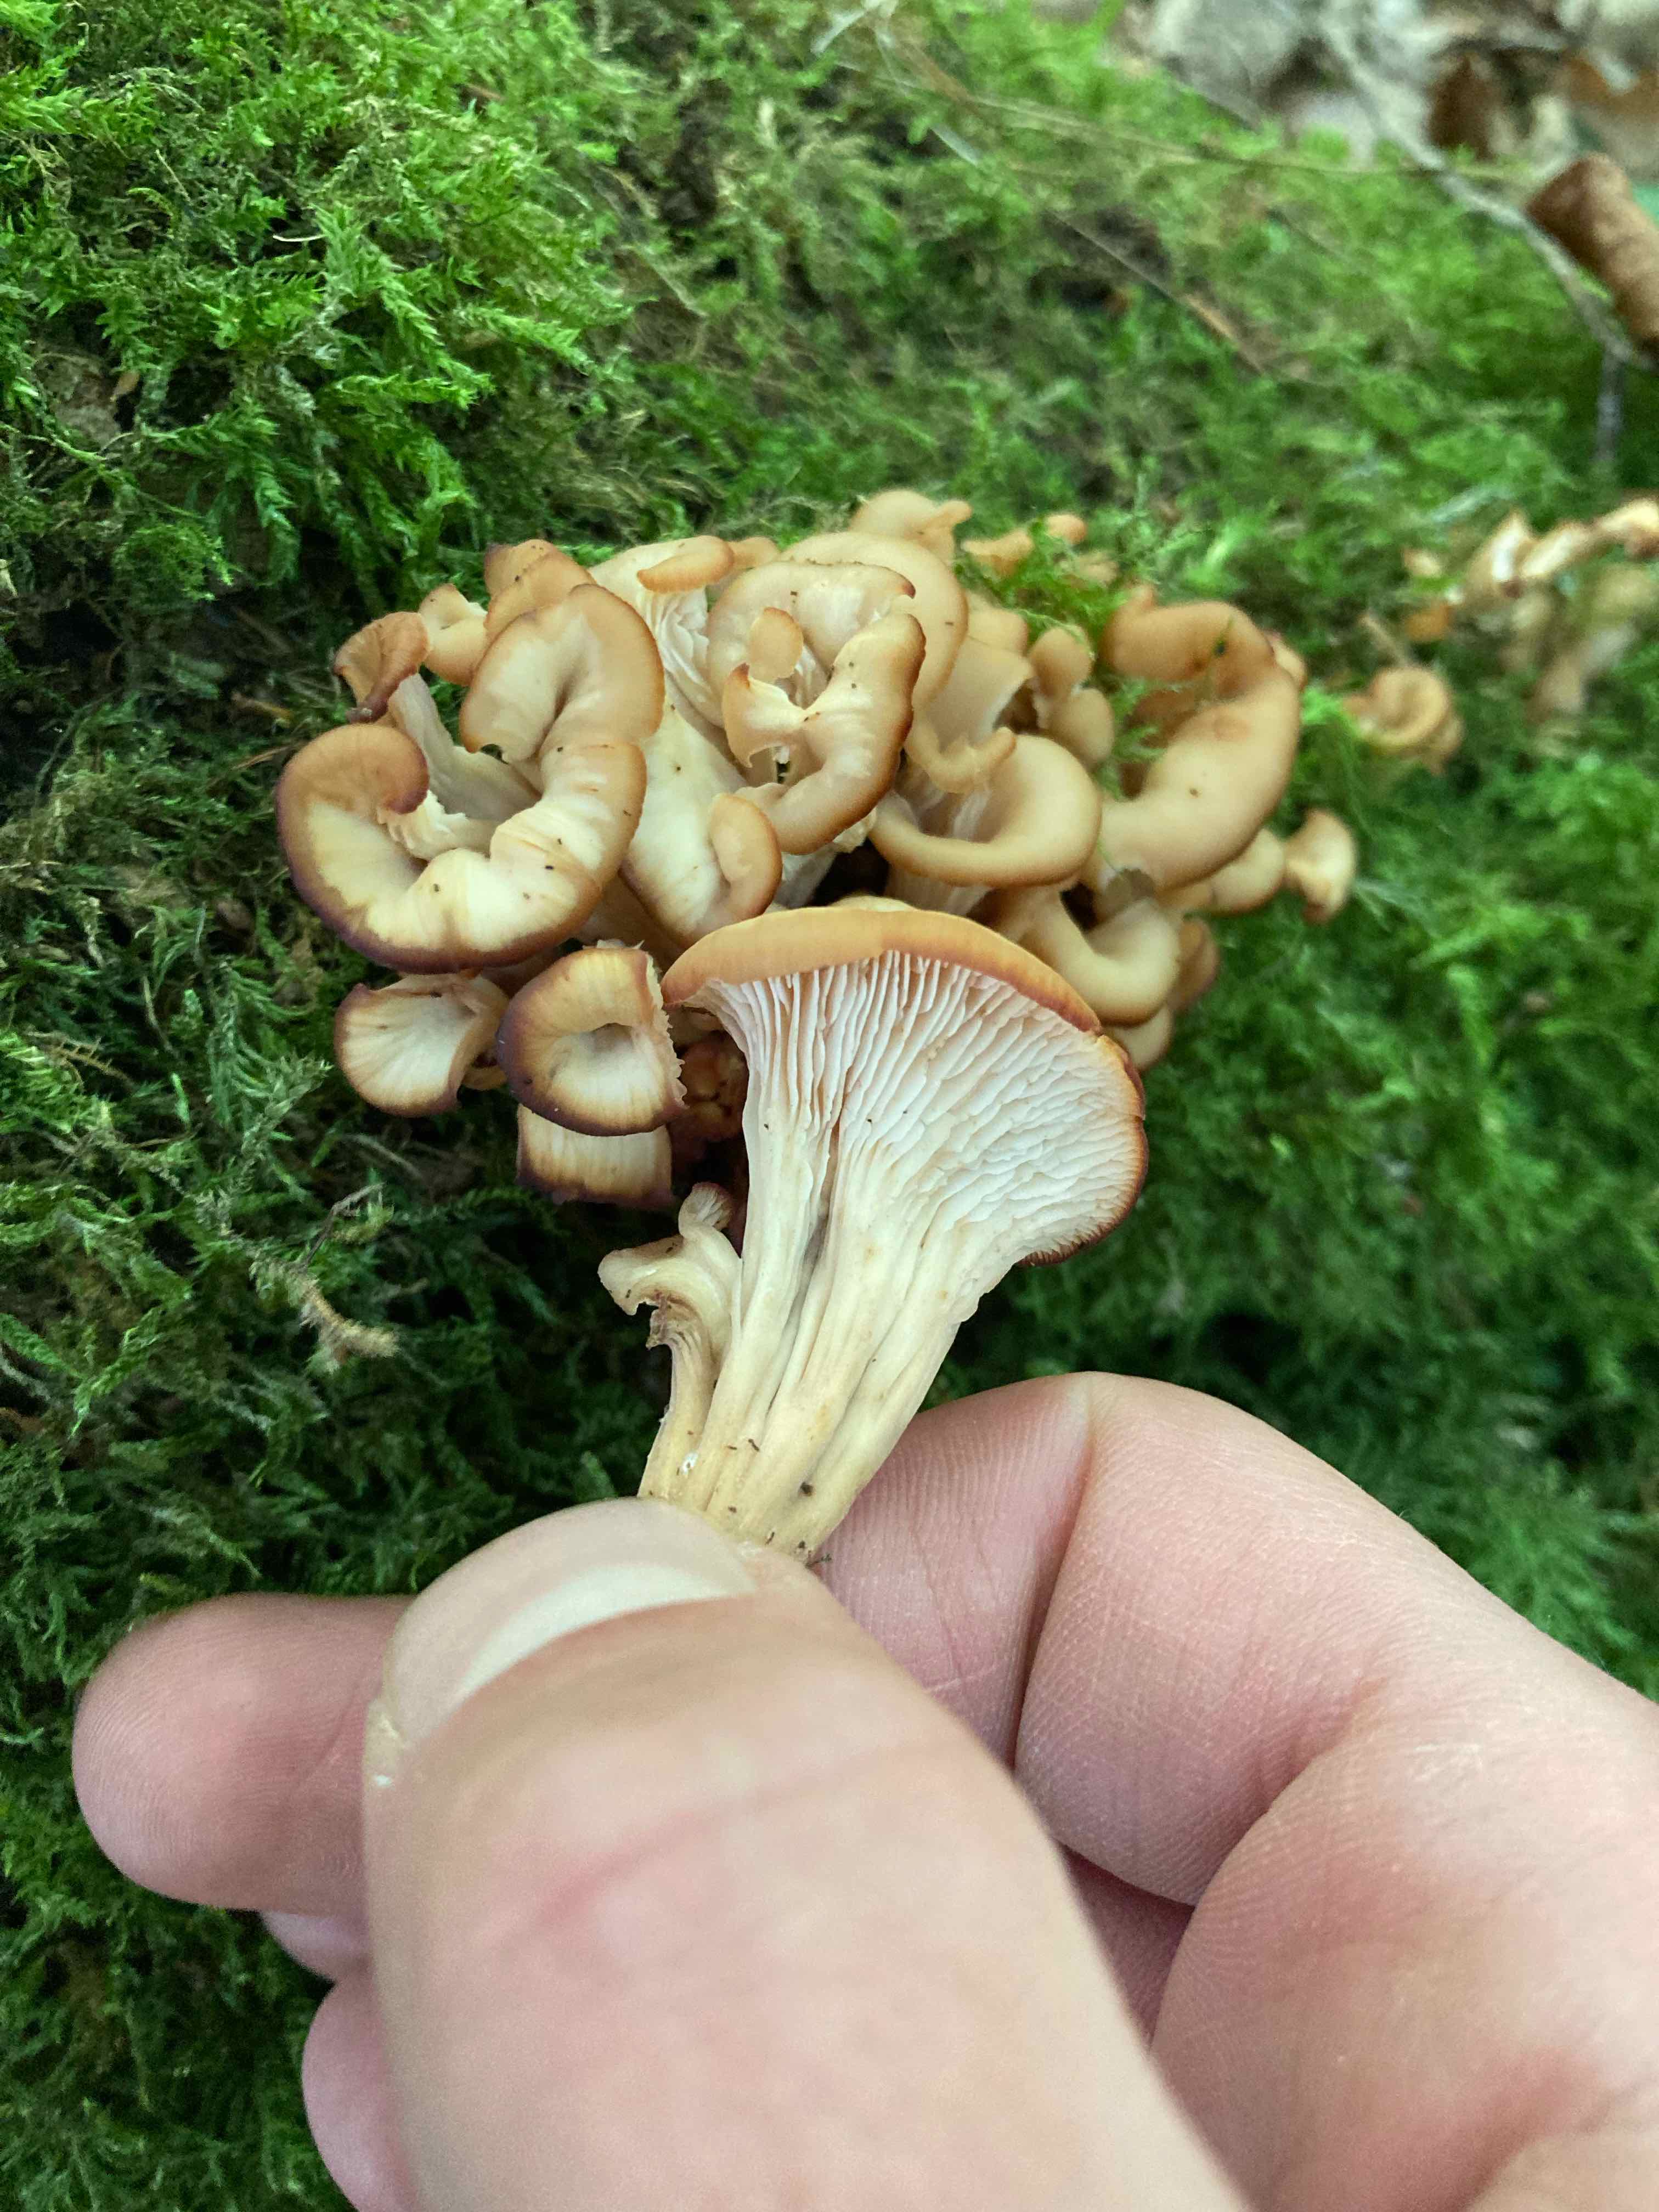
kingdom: Fungi
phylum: Basidiomycota
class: Agaricomycetes
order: Russulales
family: Auriscalpiaceae
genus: Lentinellus
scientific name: Lentinellus cochleatus
